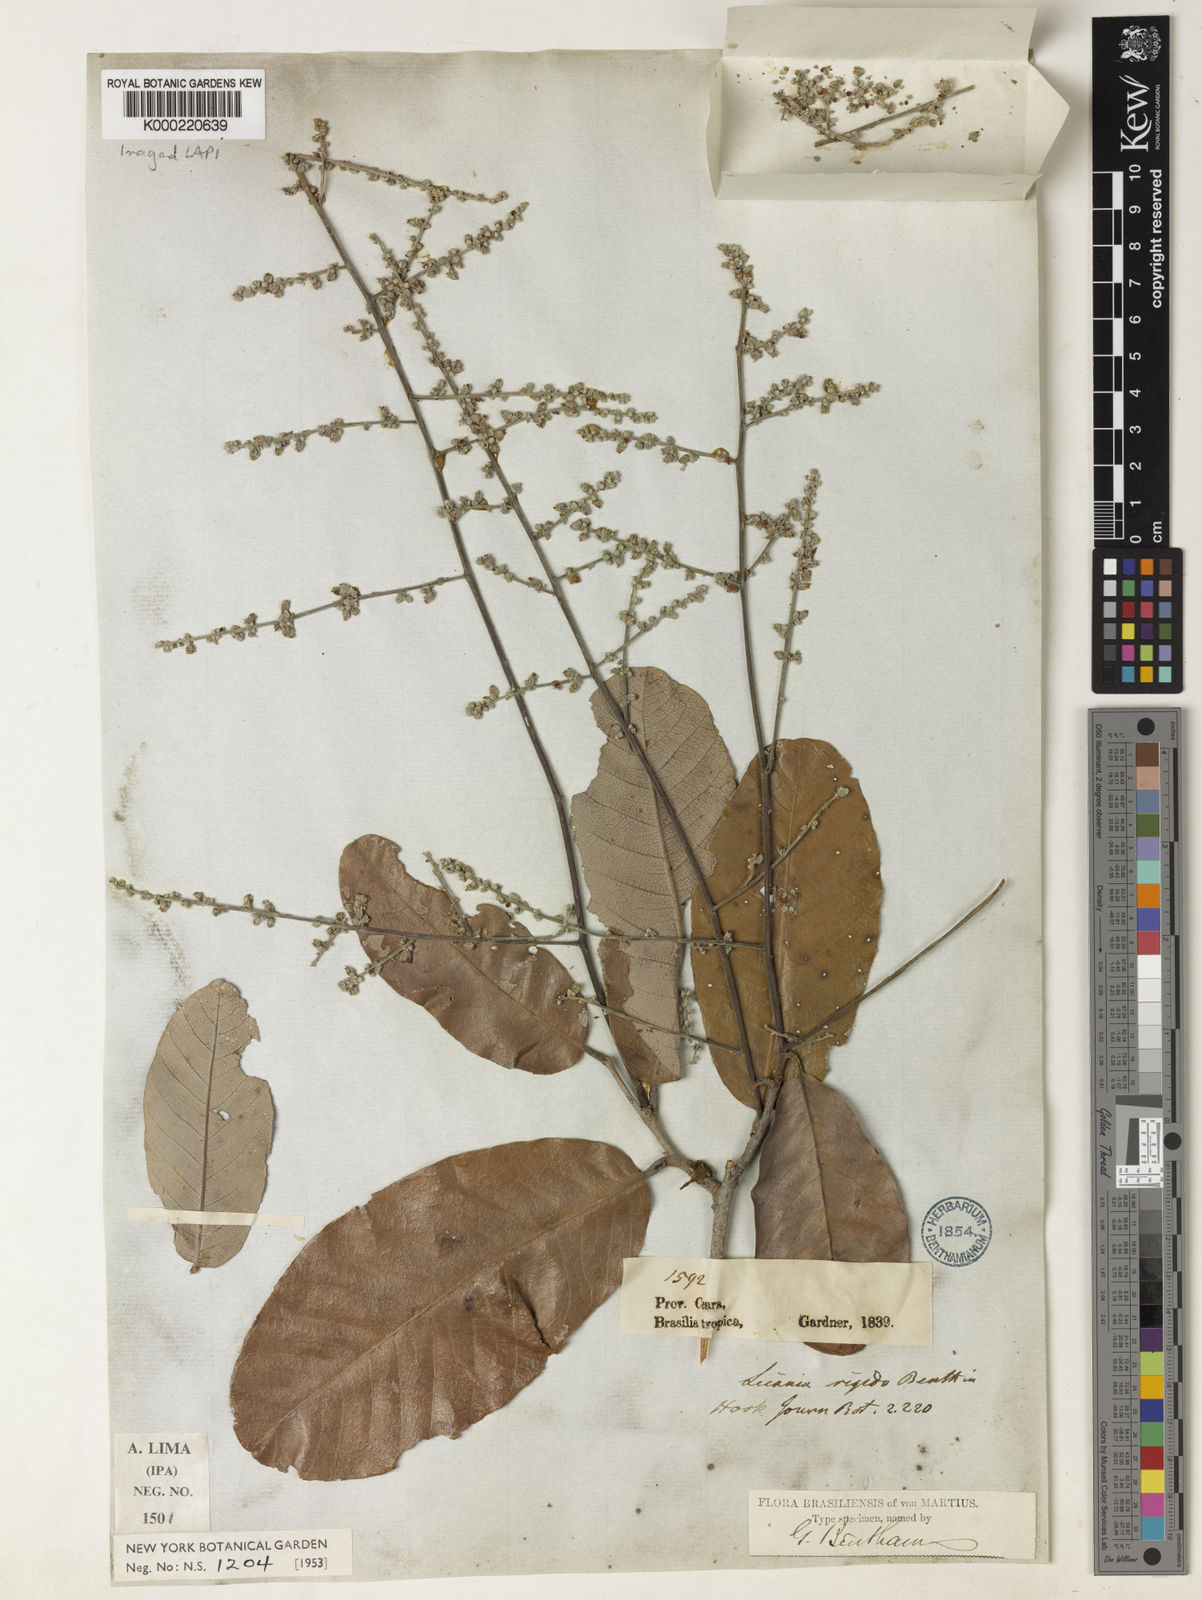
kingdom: Plantae
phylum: Tracheophyta
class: Magnoliopsida
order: Malpighiales
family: Chrysobalanaceae
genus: Microdesmia
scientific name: Microdesmia rigida
